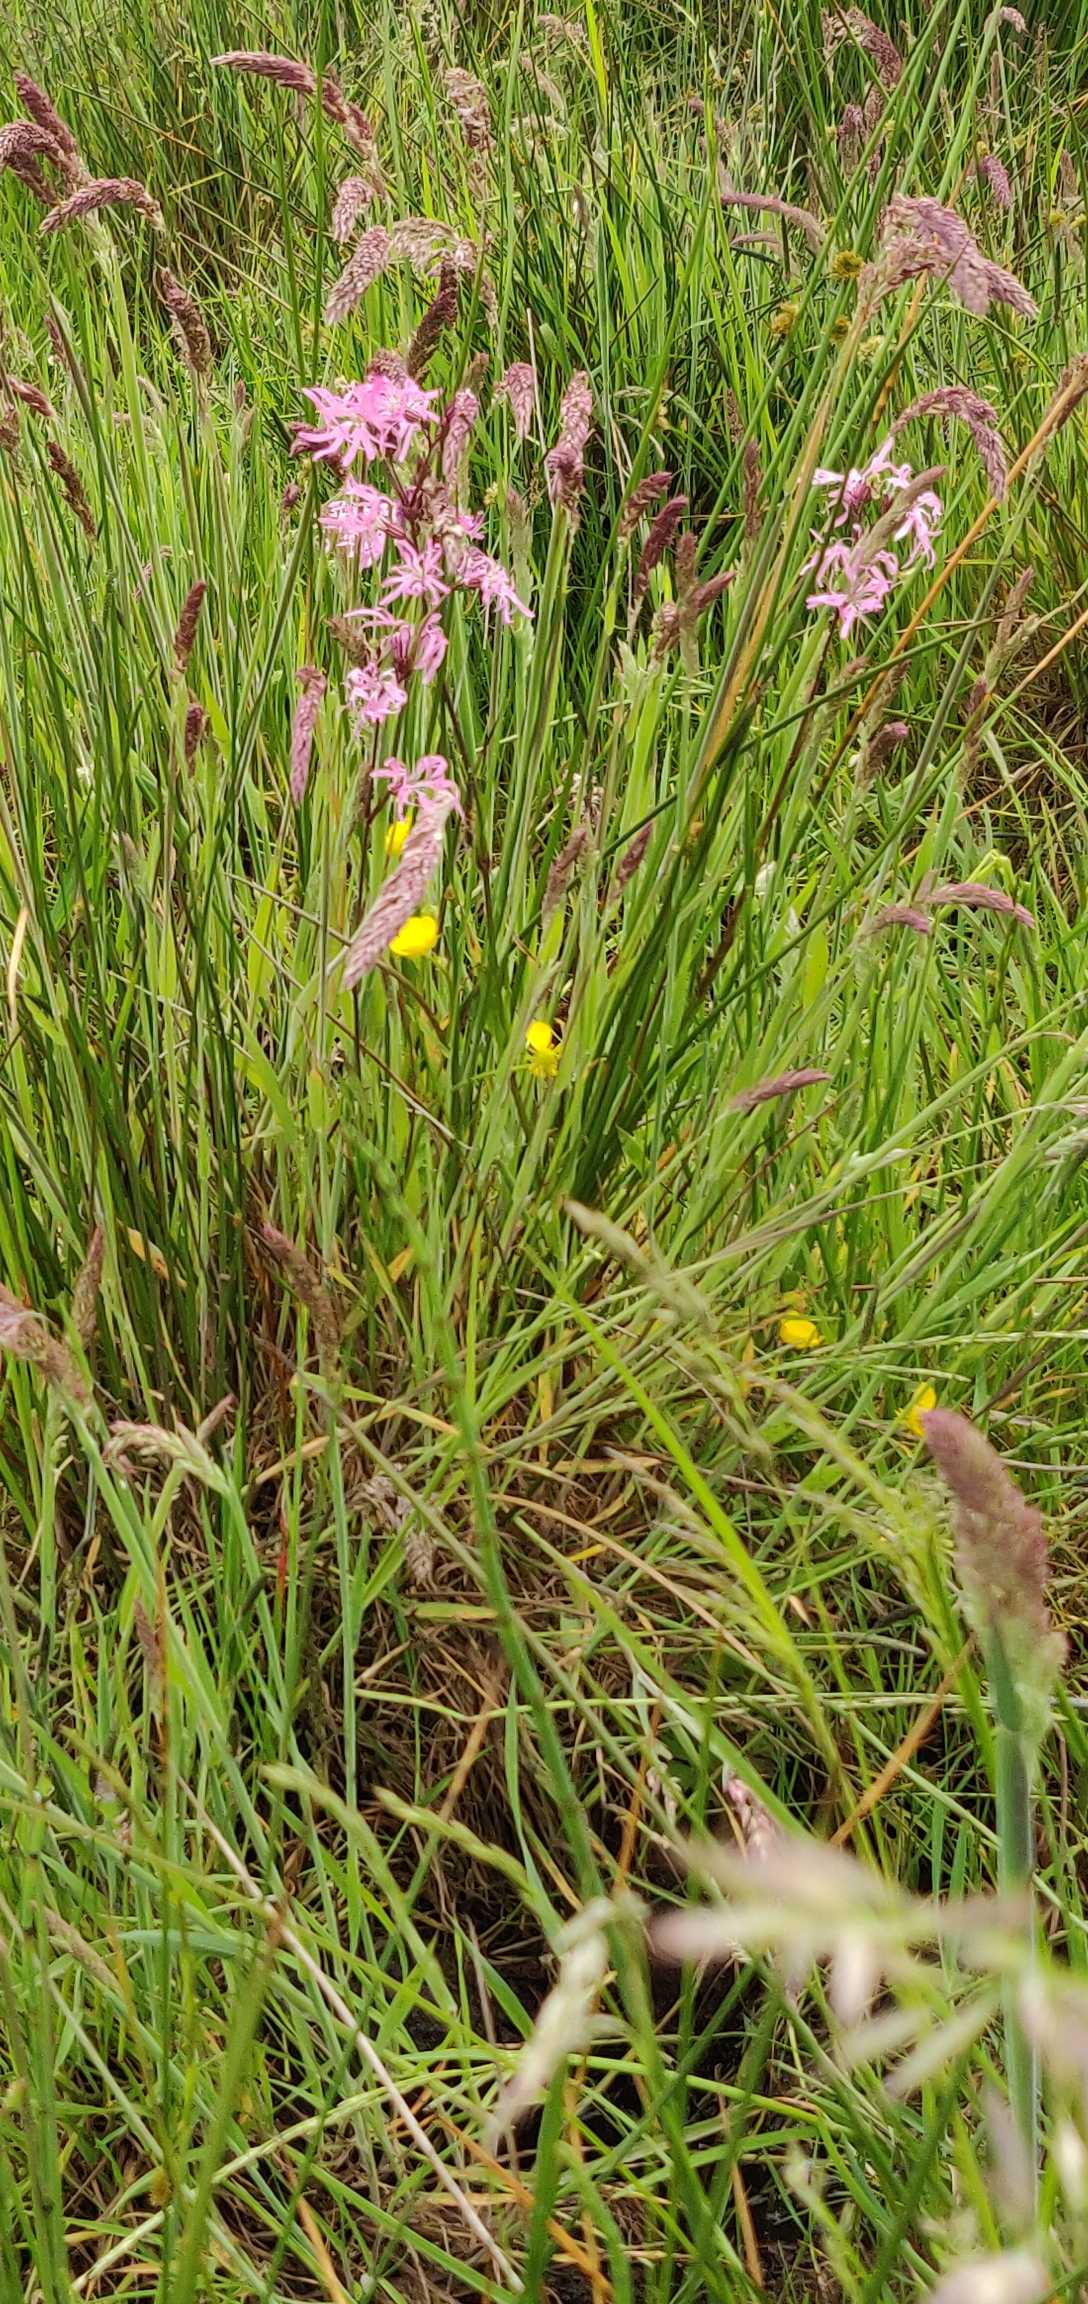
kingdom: Plantae
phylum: Tracheophyta
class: Magnoliopsida
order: Caryophyllales
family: Caryophyllaceae
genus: Silene
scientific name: Silene flos-cuculi
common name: Trævlekrone
